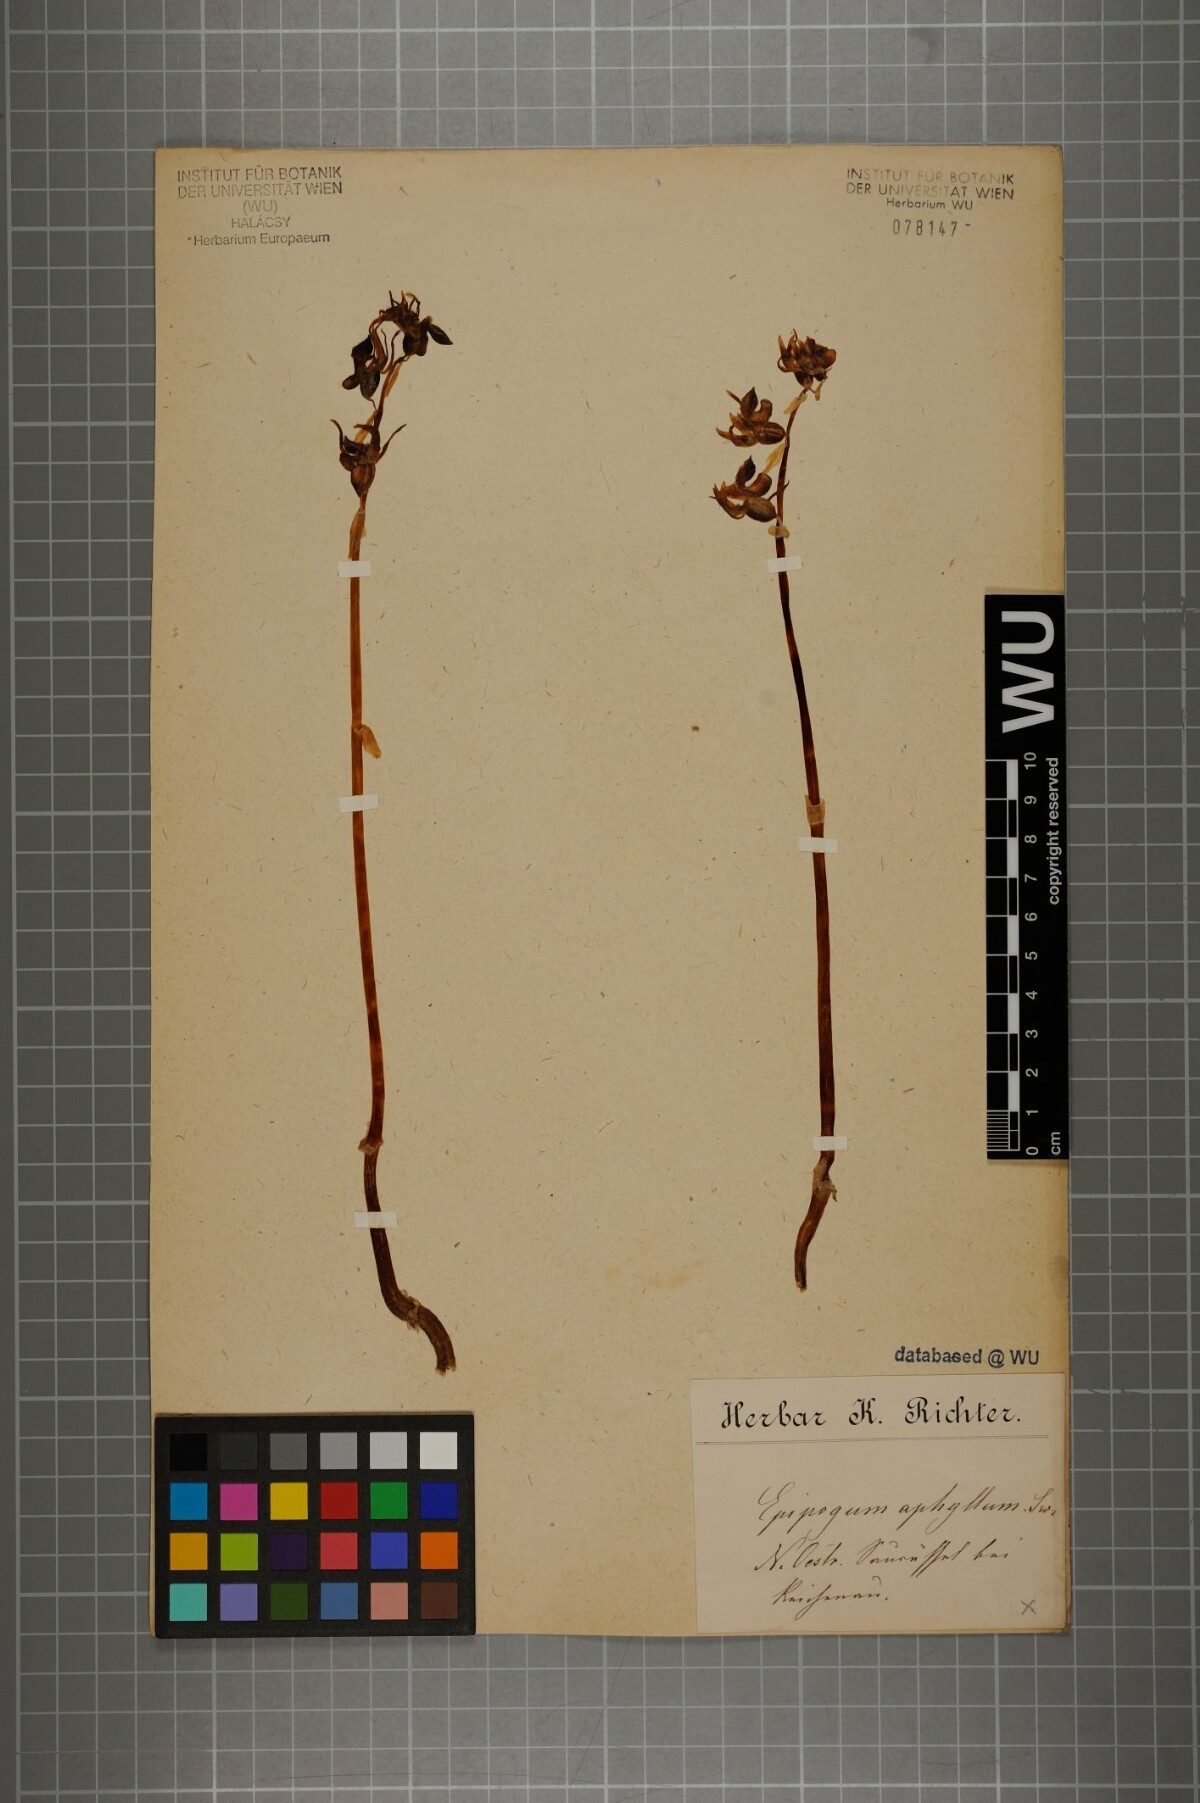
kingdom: Plantae
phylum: Tracheophyta
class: Liliopsida
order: Asparagales
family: Orchidaceae
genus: Epipogium
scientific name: Epipogium aphyllum
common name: Ghost orchid
